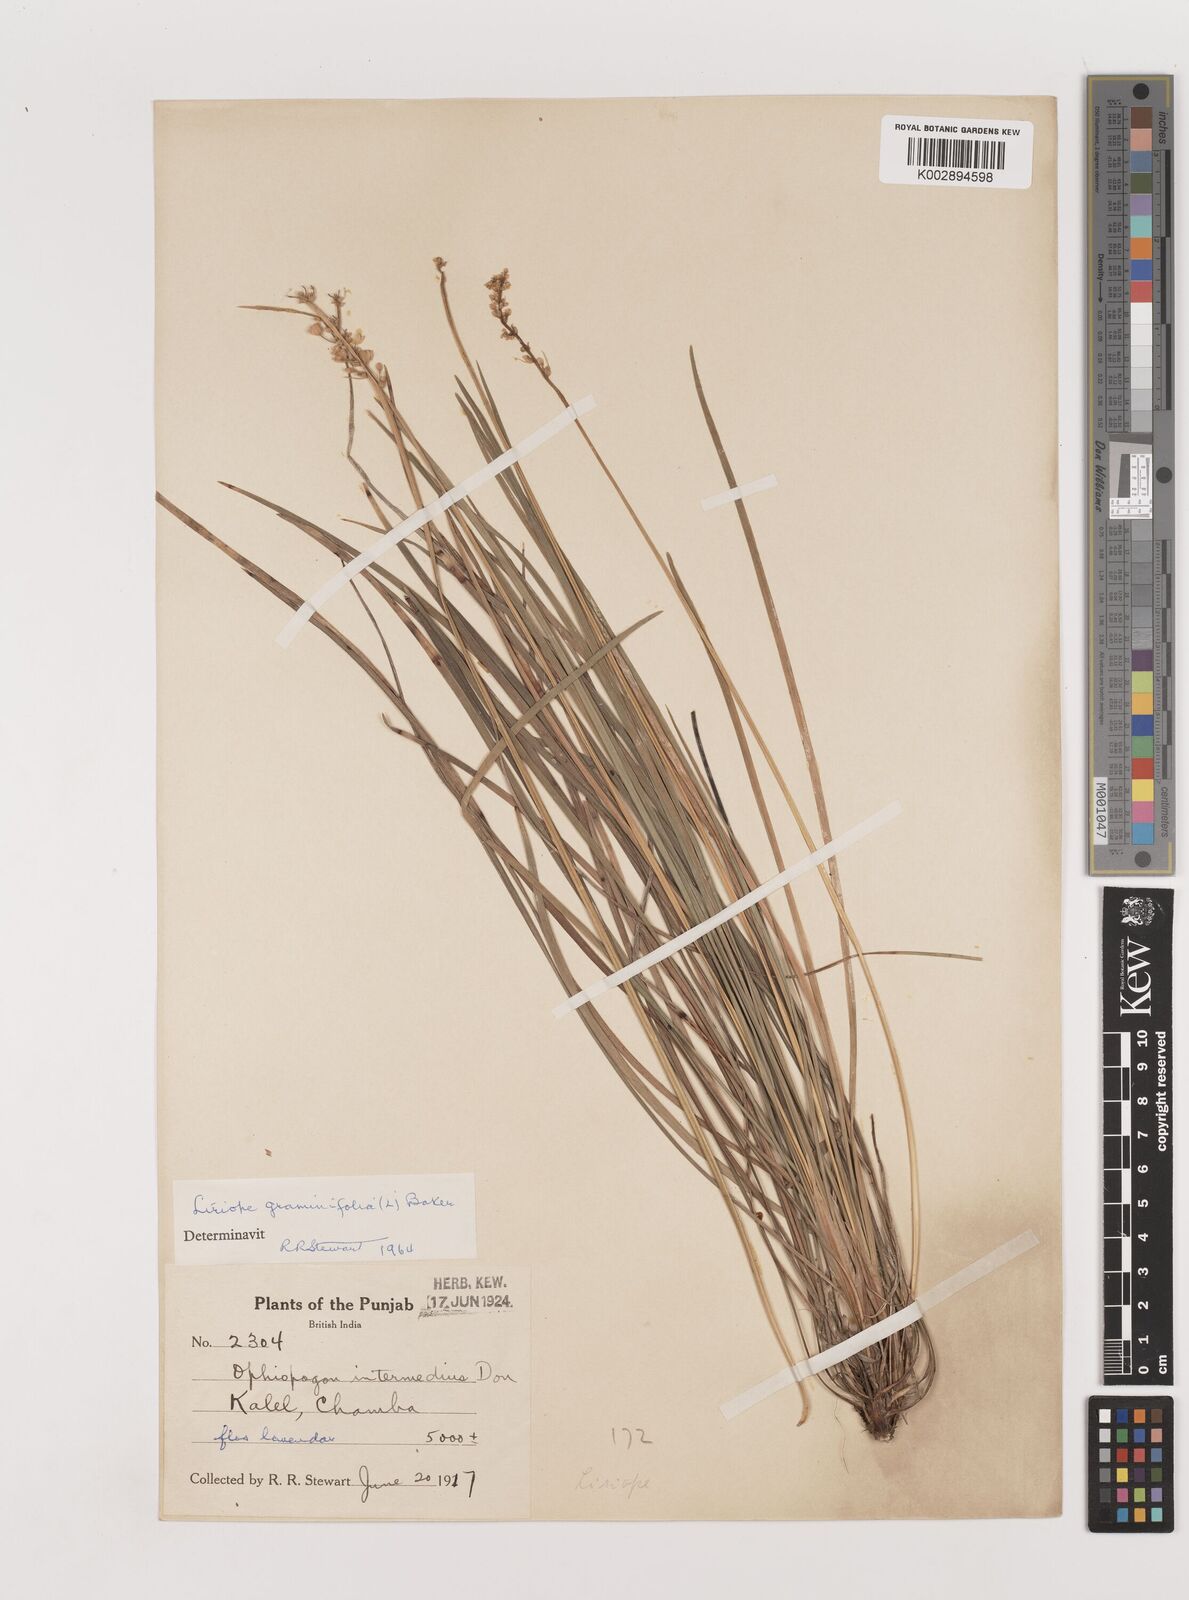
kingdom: Plantae
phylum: Tracheophyta
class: Liliopsida
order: Asparagales
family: Asparagaceae
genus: Liriope
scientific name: Liriope
